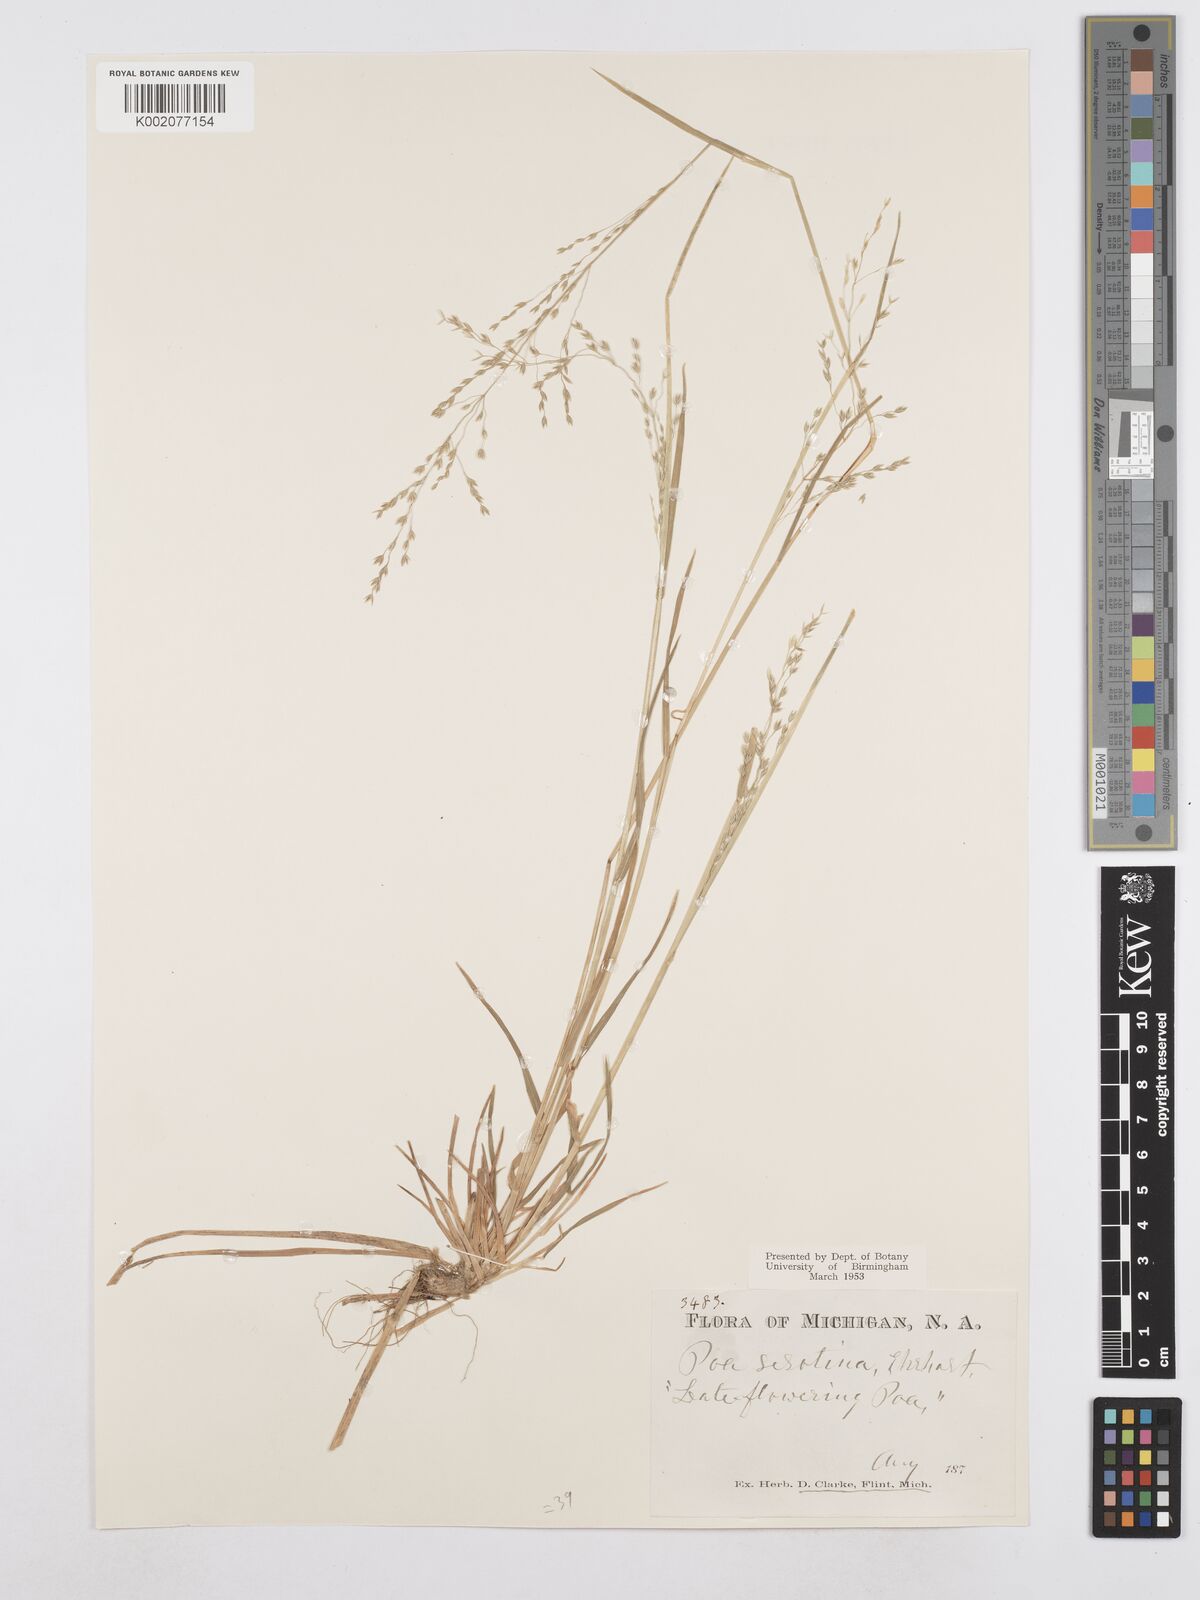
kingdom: Plantae
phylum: Tracheophyta
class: Liliopsida
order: Poales
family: Poaceae
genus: Poa
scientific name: Poa palustris
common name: Swamp meadow-grass
